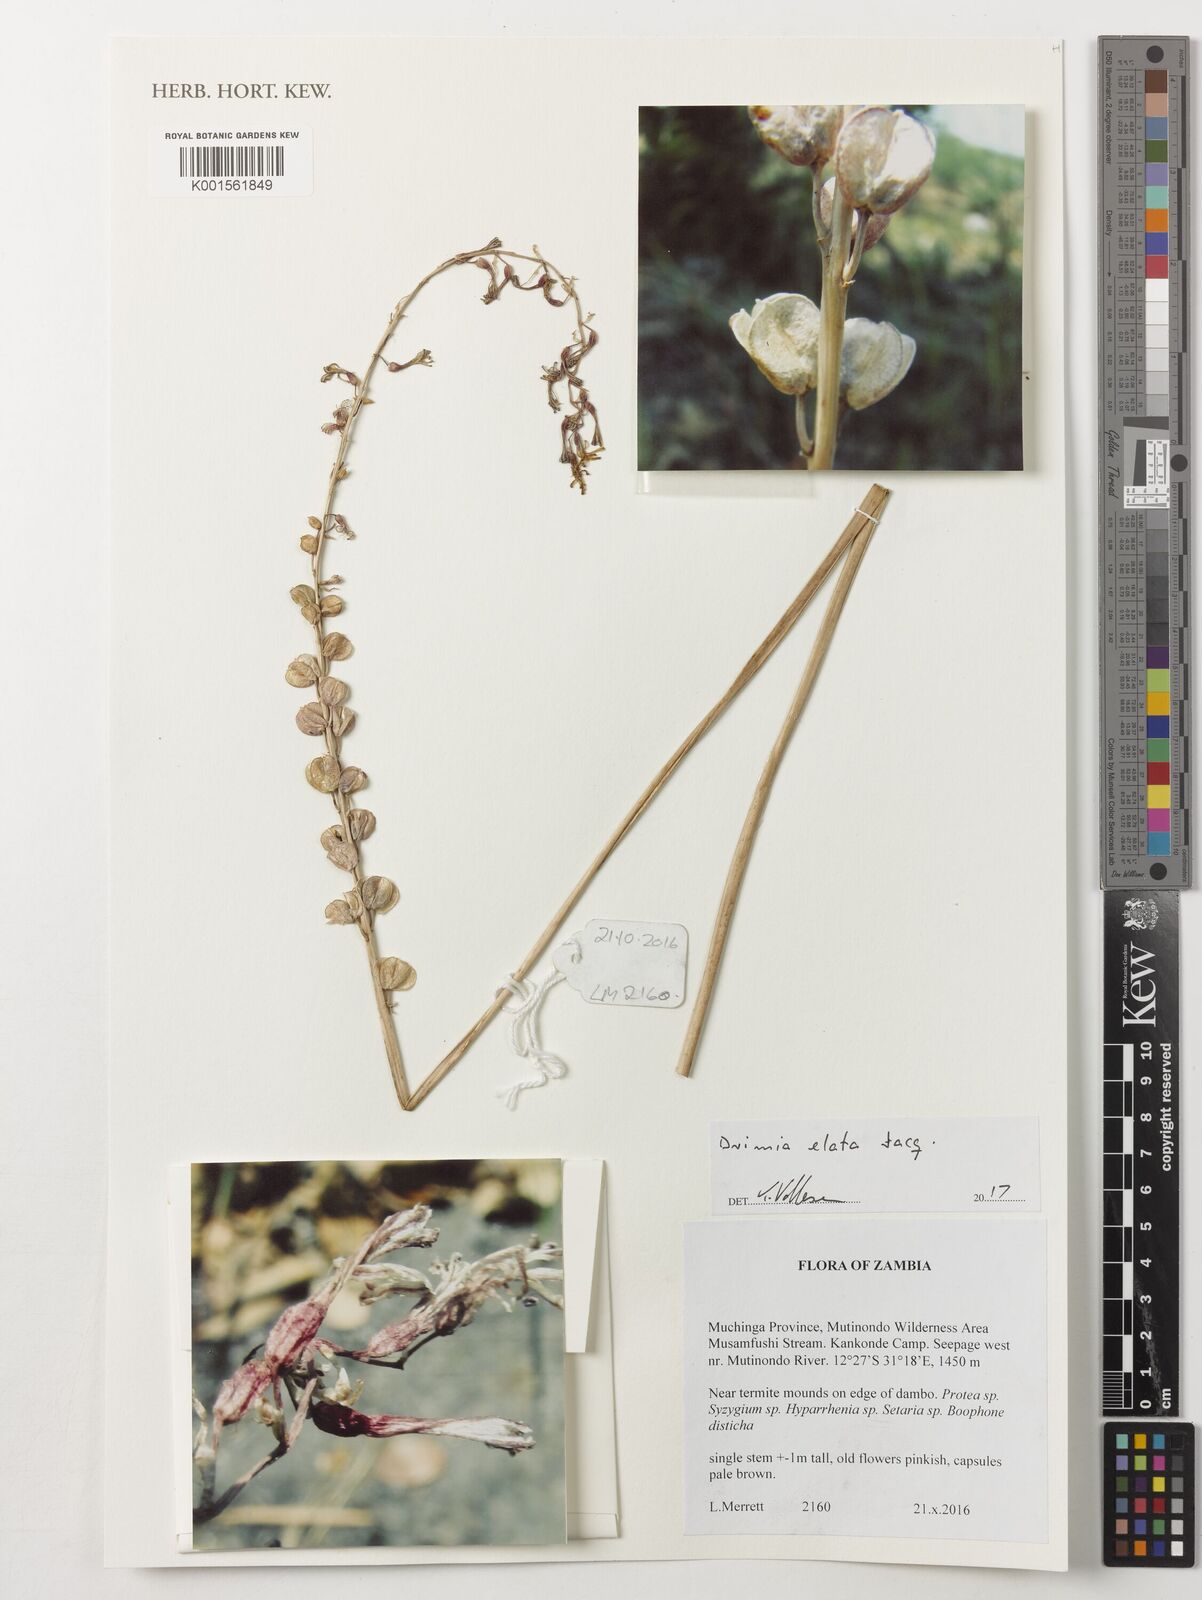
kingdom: Plantae
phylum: Tracheophyta
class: Liliopsida
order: Asparagales
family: Asparagaceae
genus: Drimia
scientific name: Drimia elata
